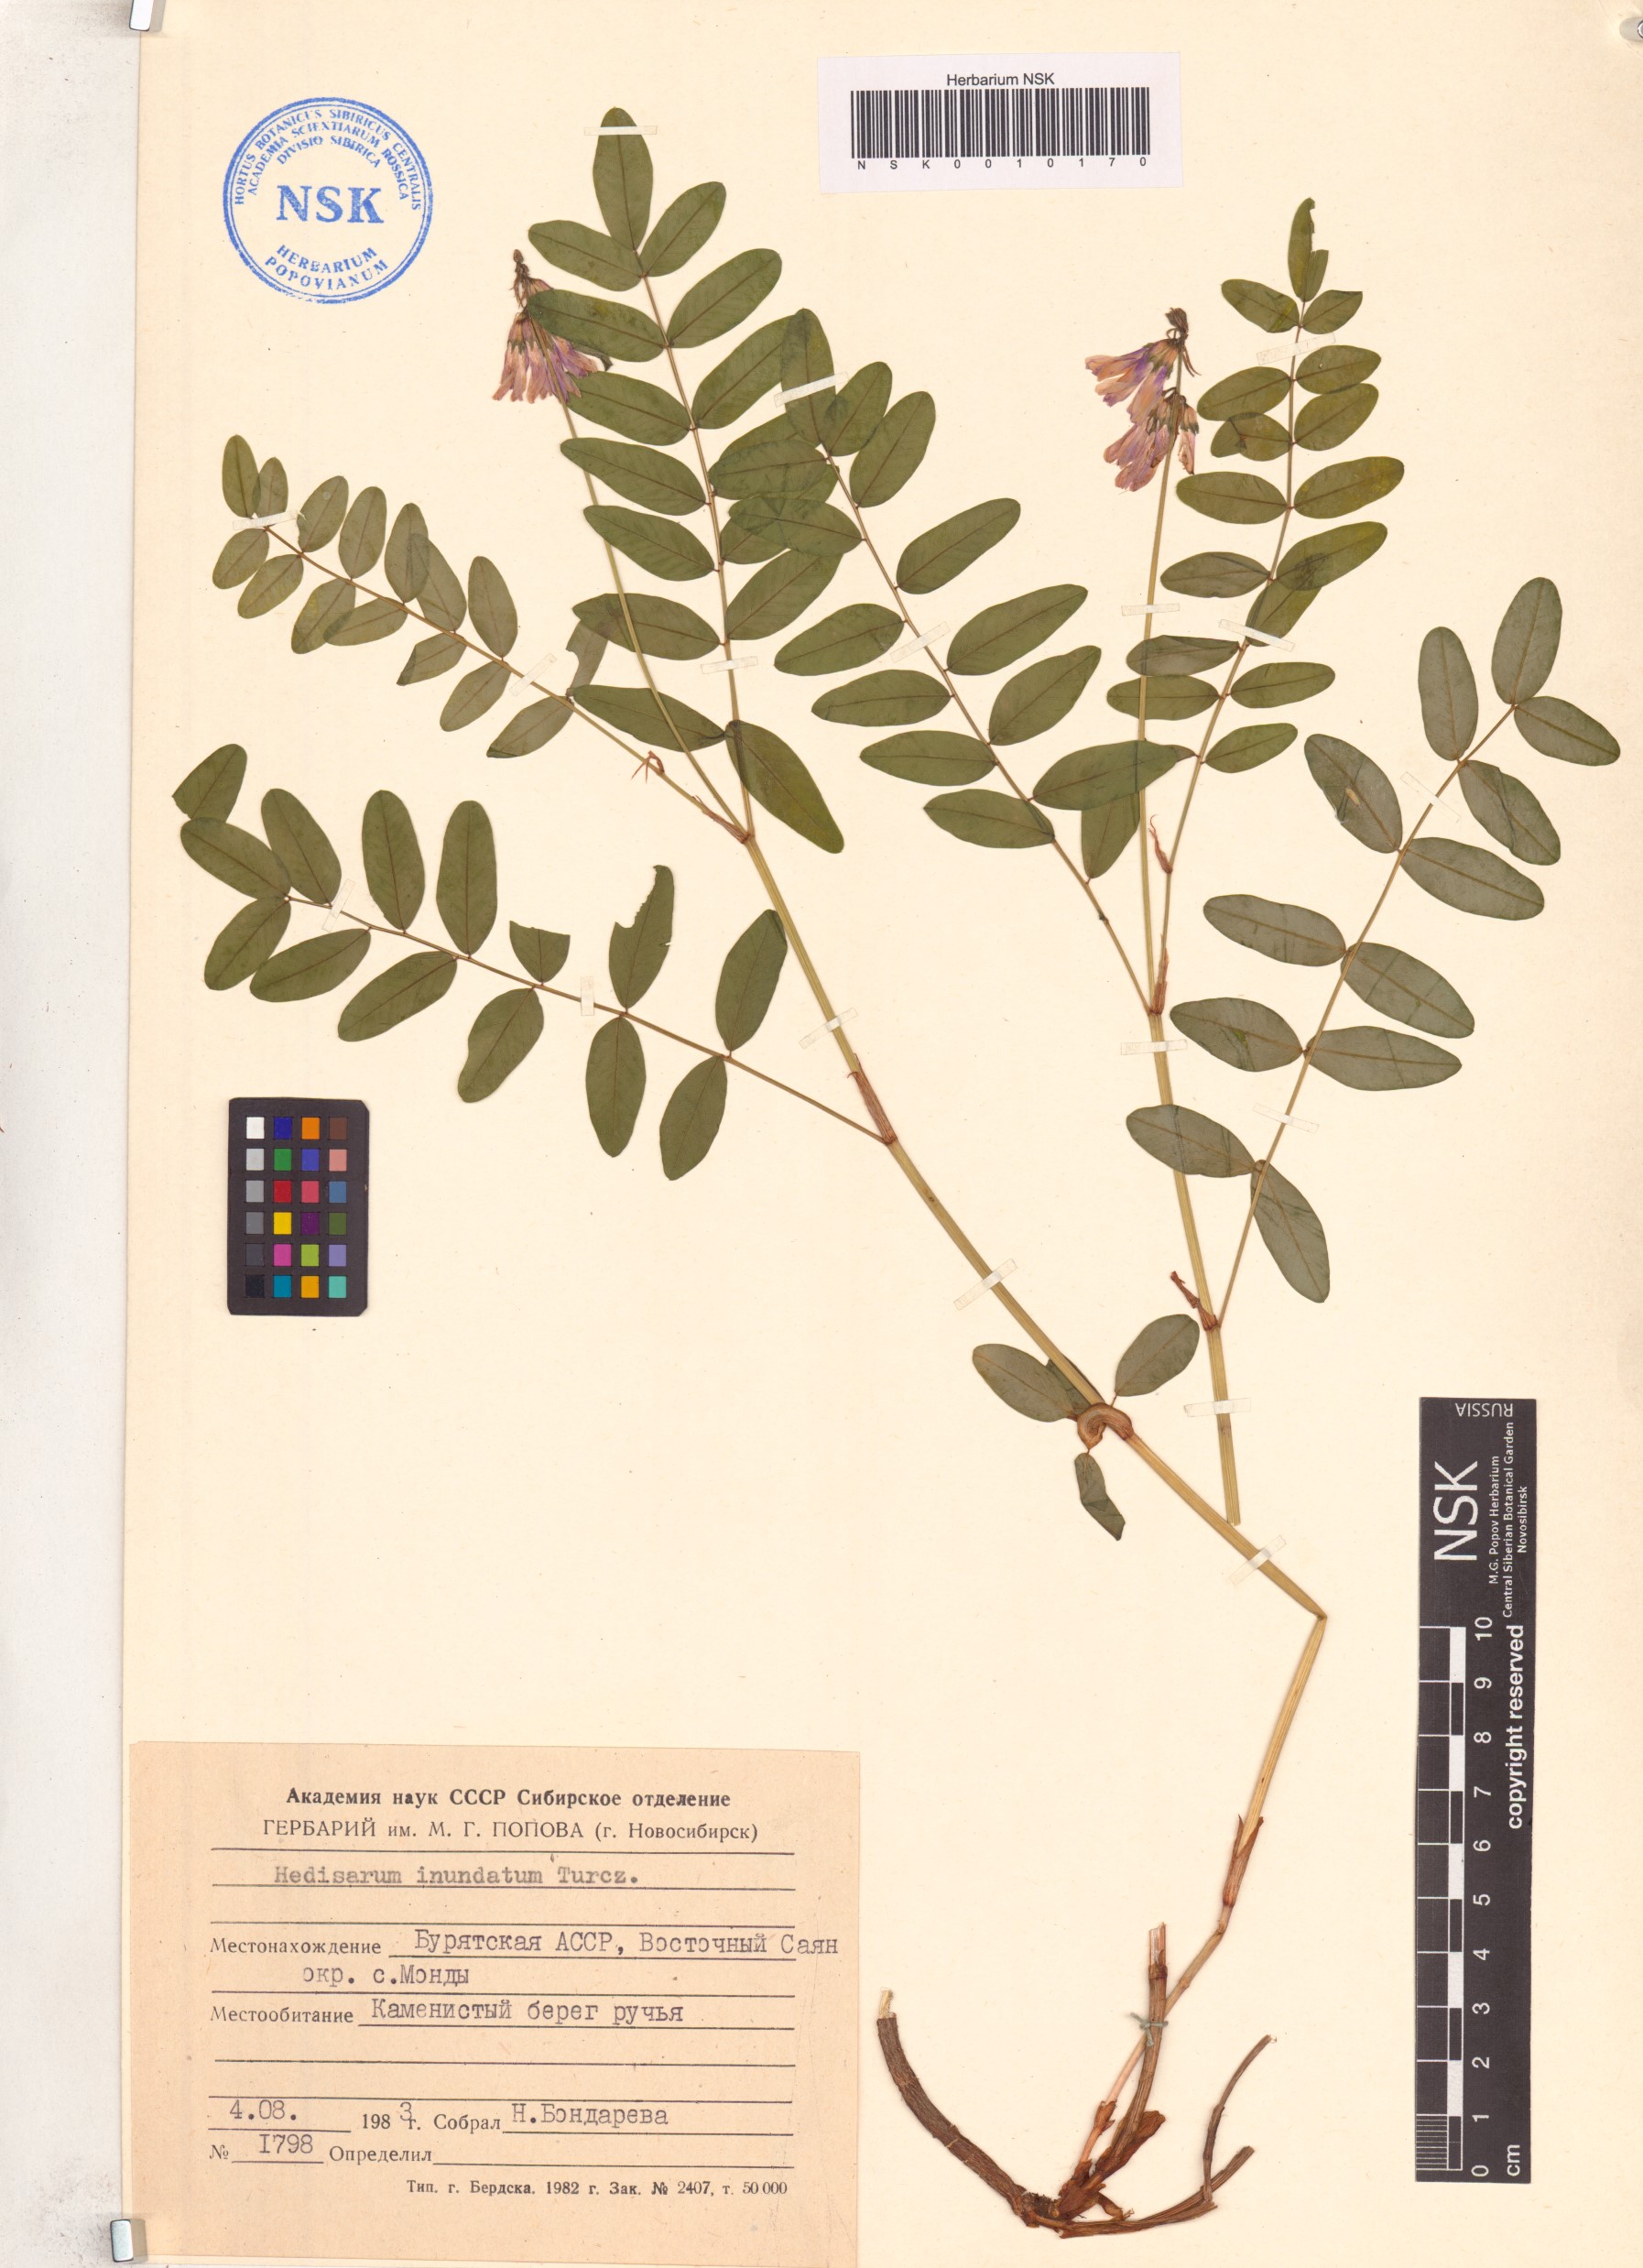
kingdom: Plantae
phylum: Tracheophyta
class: Magnoliopsida
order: Fabales
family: Fabaceae
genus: Hedysarum
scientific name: Hedysarum inundatum
